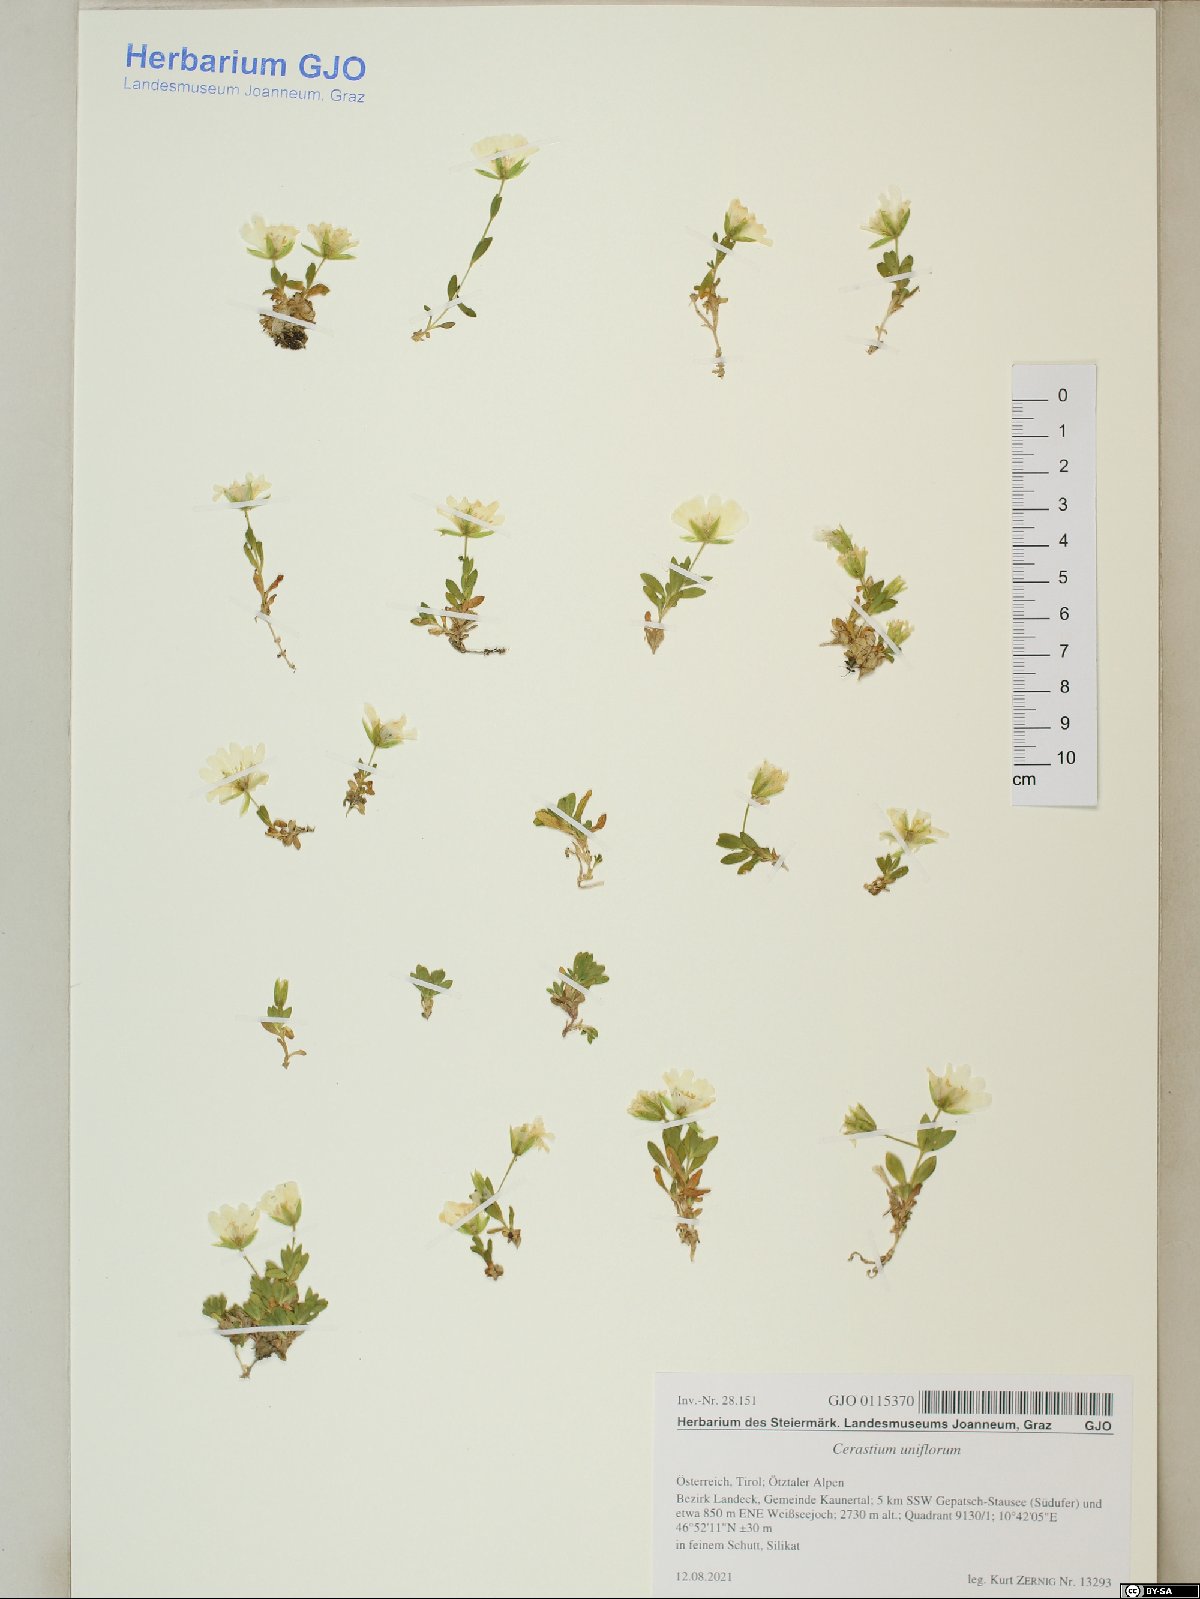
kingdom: Plantae
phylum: Tracheophyta
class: Magnoliopsida
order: Caryophyllales
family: Caryophyllaceae
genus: Cerastium
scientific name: Cerastium uniflorum
